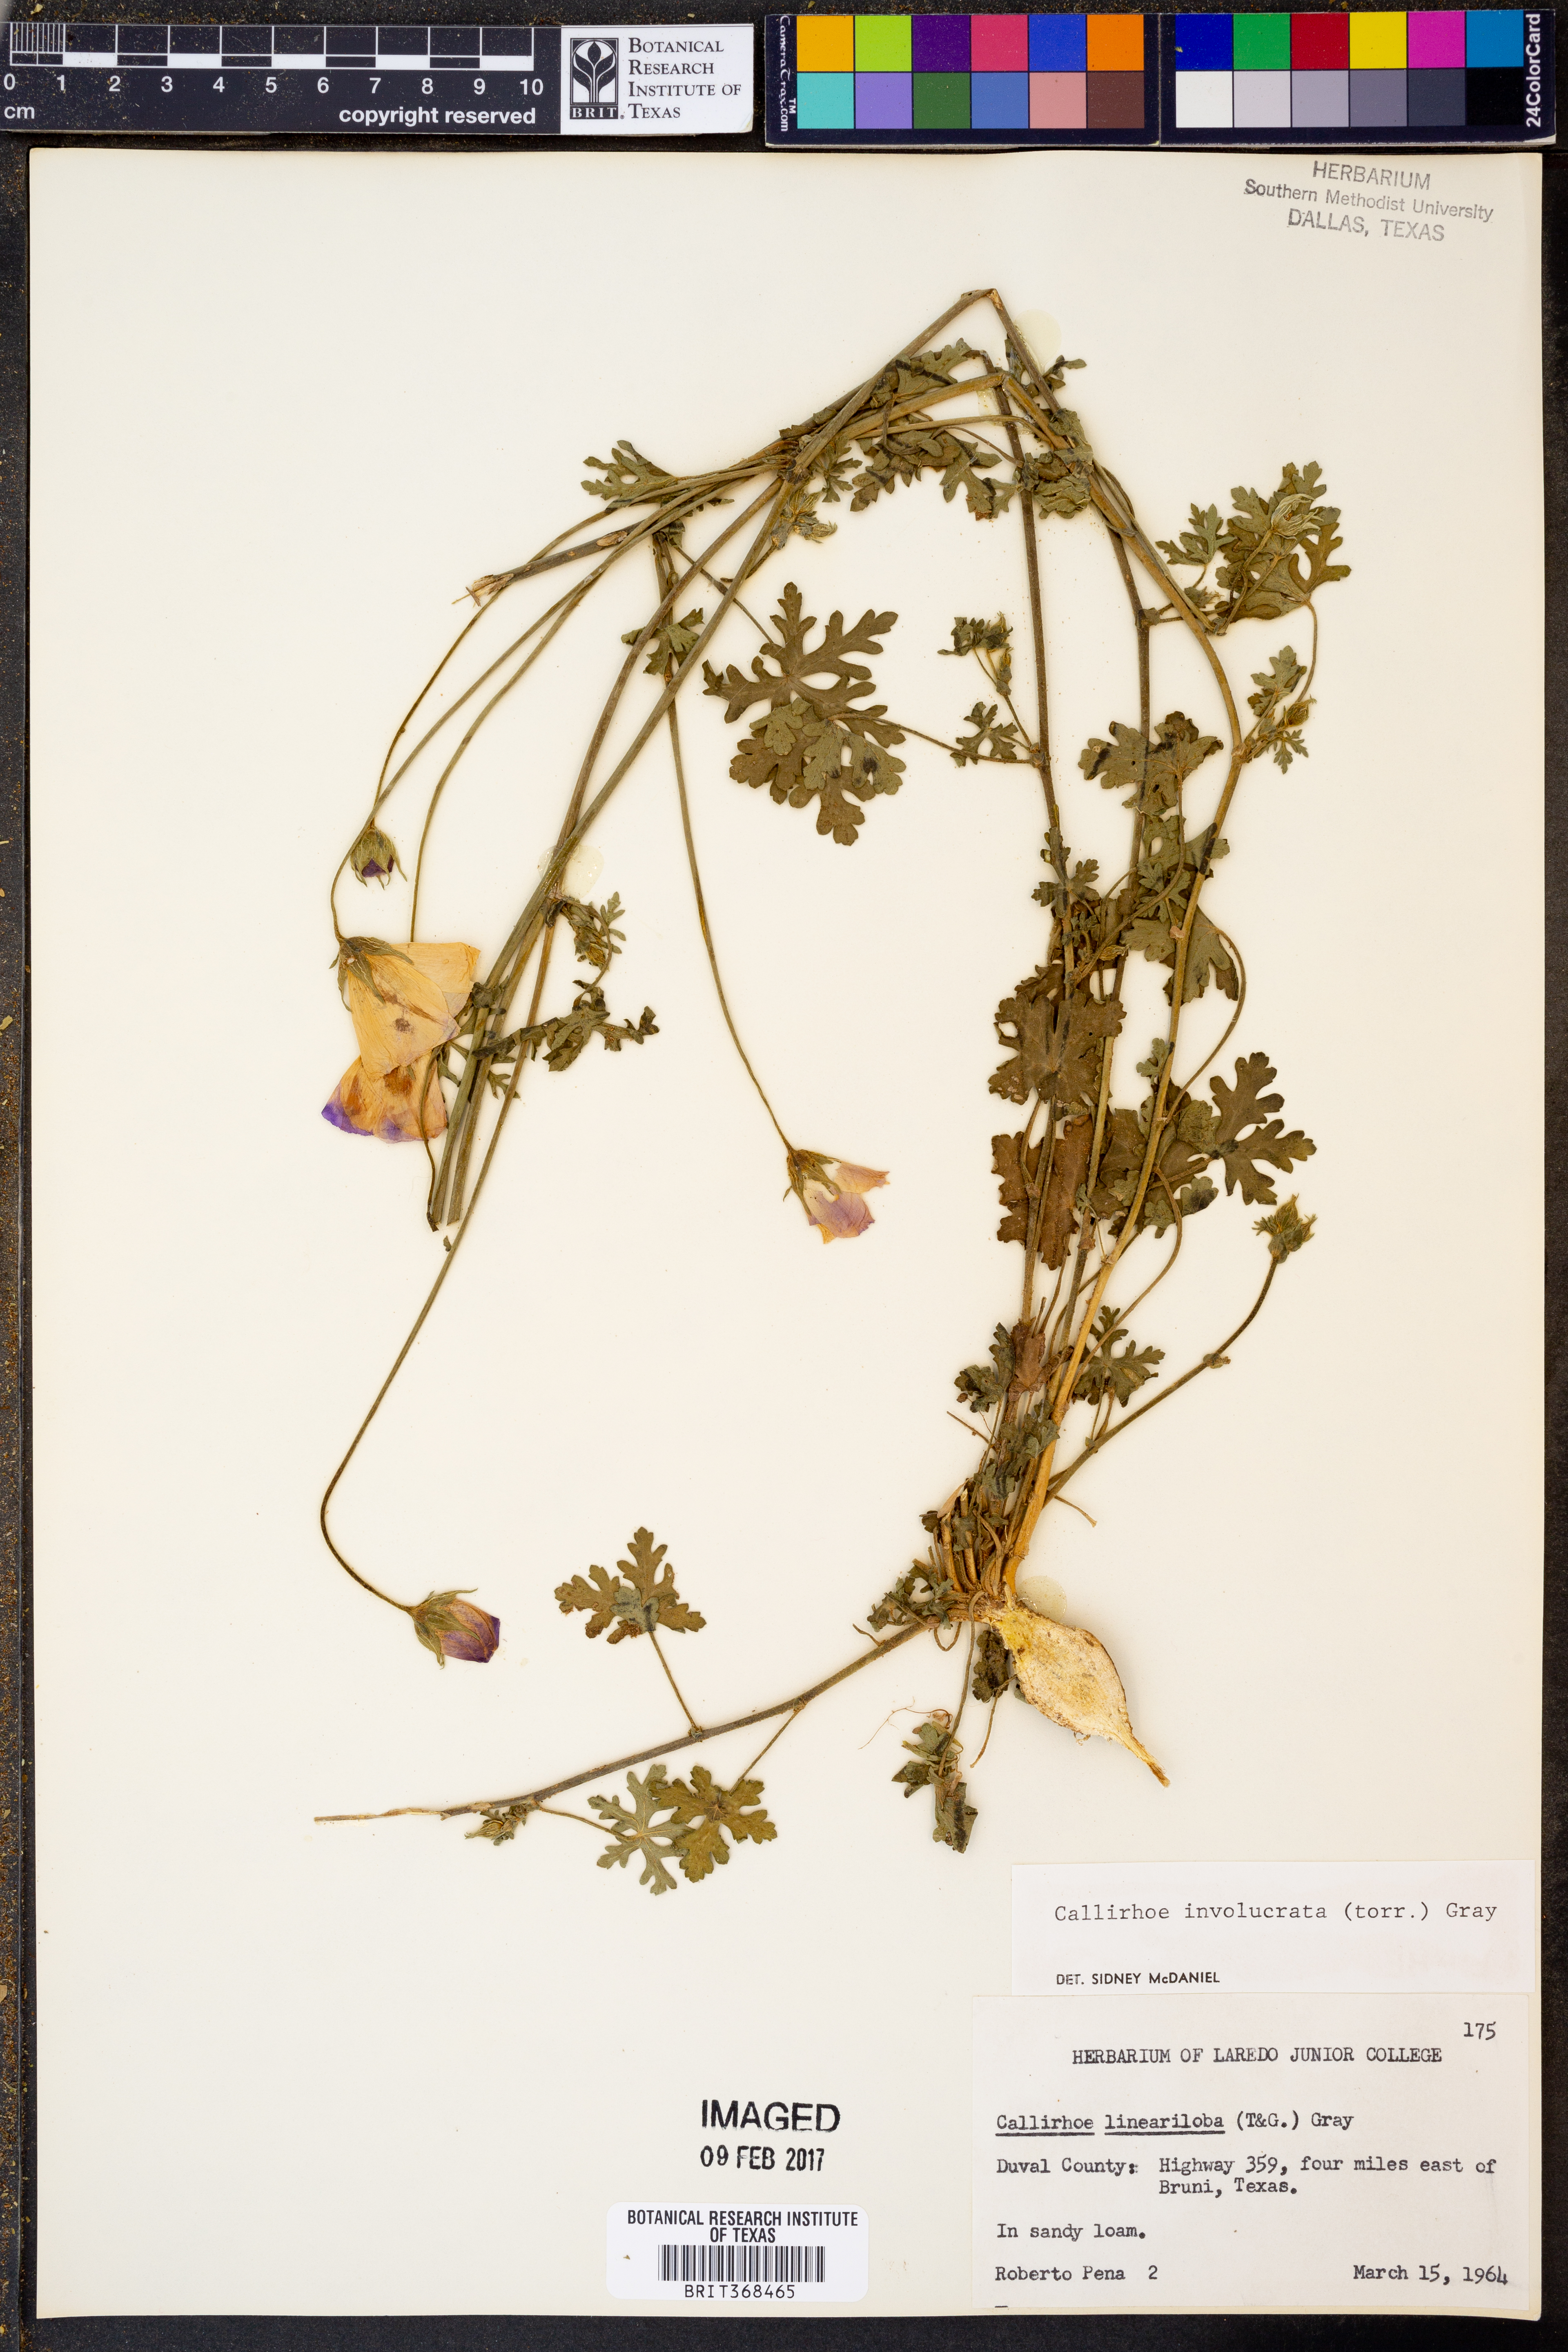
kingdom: Plantae
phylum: Tracheophyta
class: Magnoliopsida
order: Malvales
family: Malvaceae
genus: Callirhoe
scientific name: Callirhoe involucrata
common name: Purple poppy-mallow
